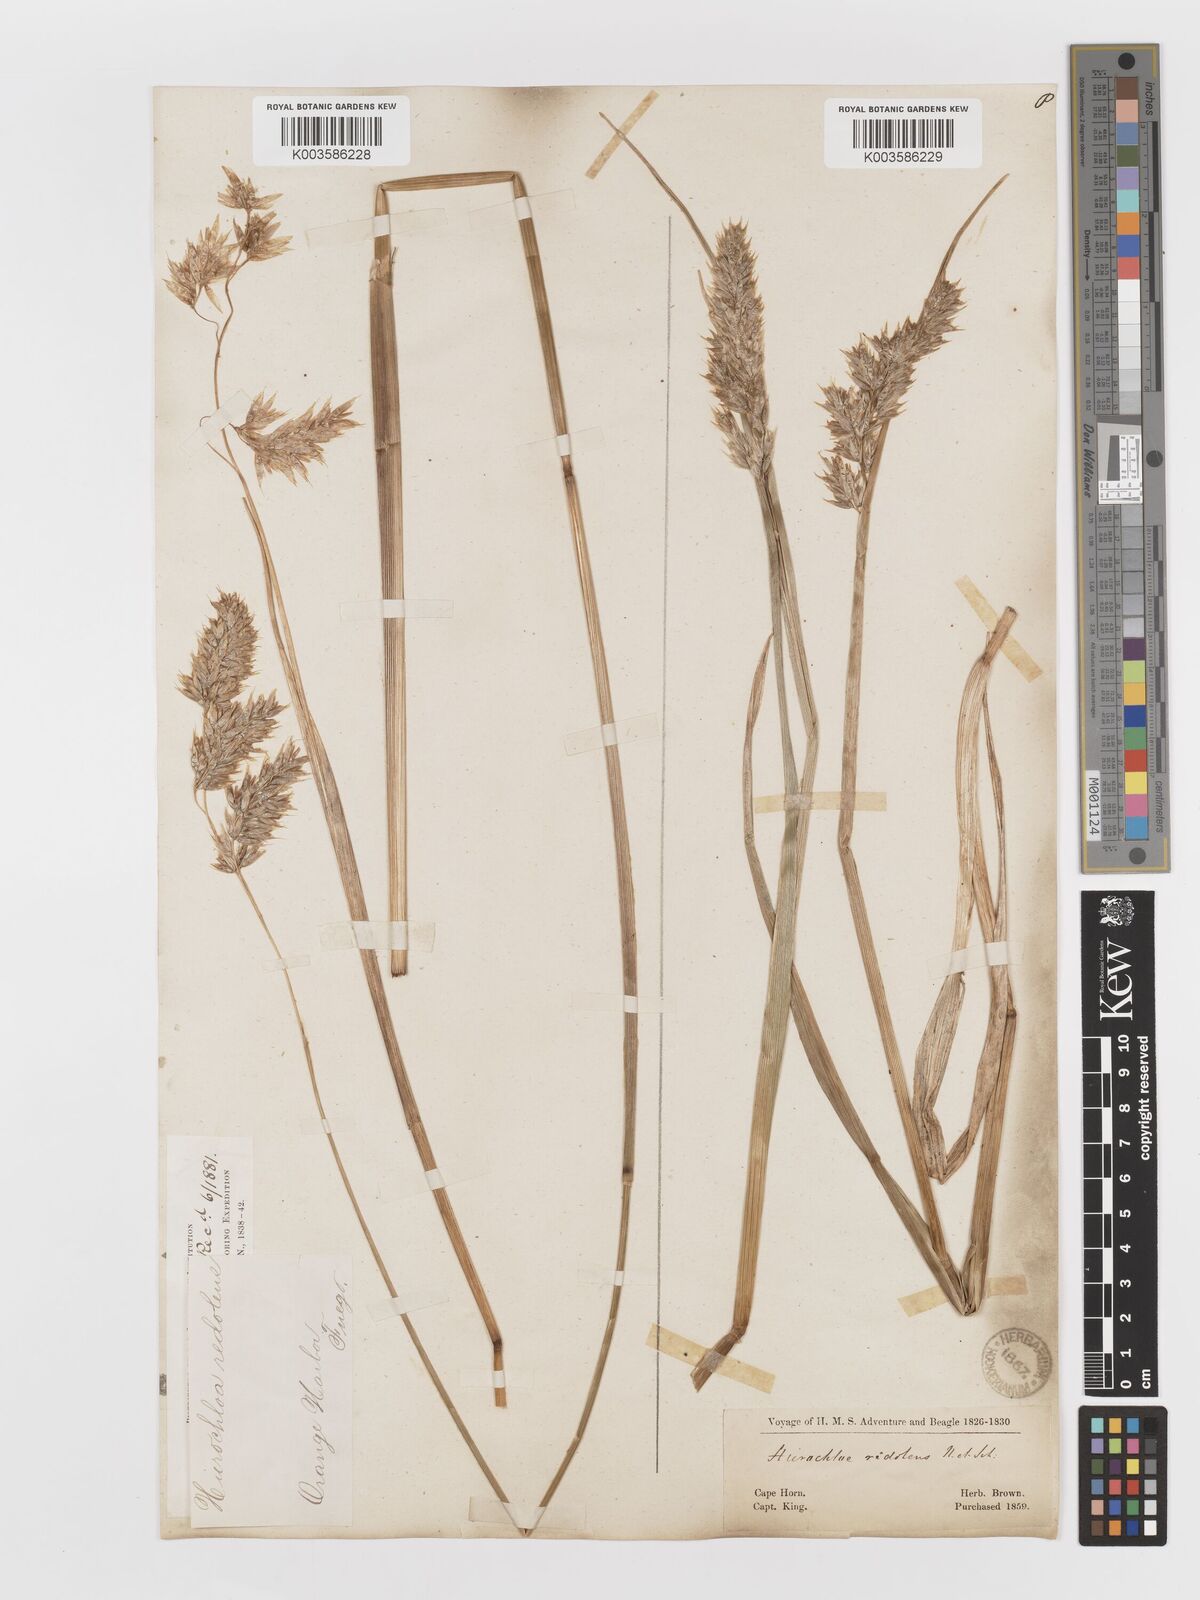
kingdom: Plantae
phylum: Tracheophyta
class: Liliopsida
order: Poales
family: Poaceae
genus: Anthoxanthum
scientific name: Anthoxanthum redolens
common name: Sweet holy grass
